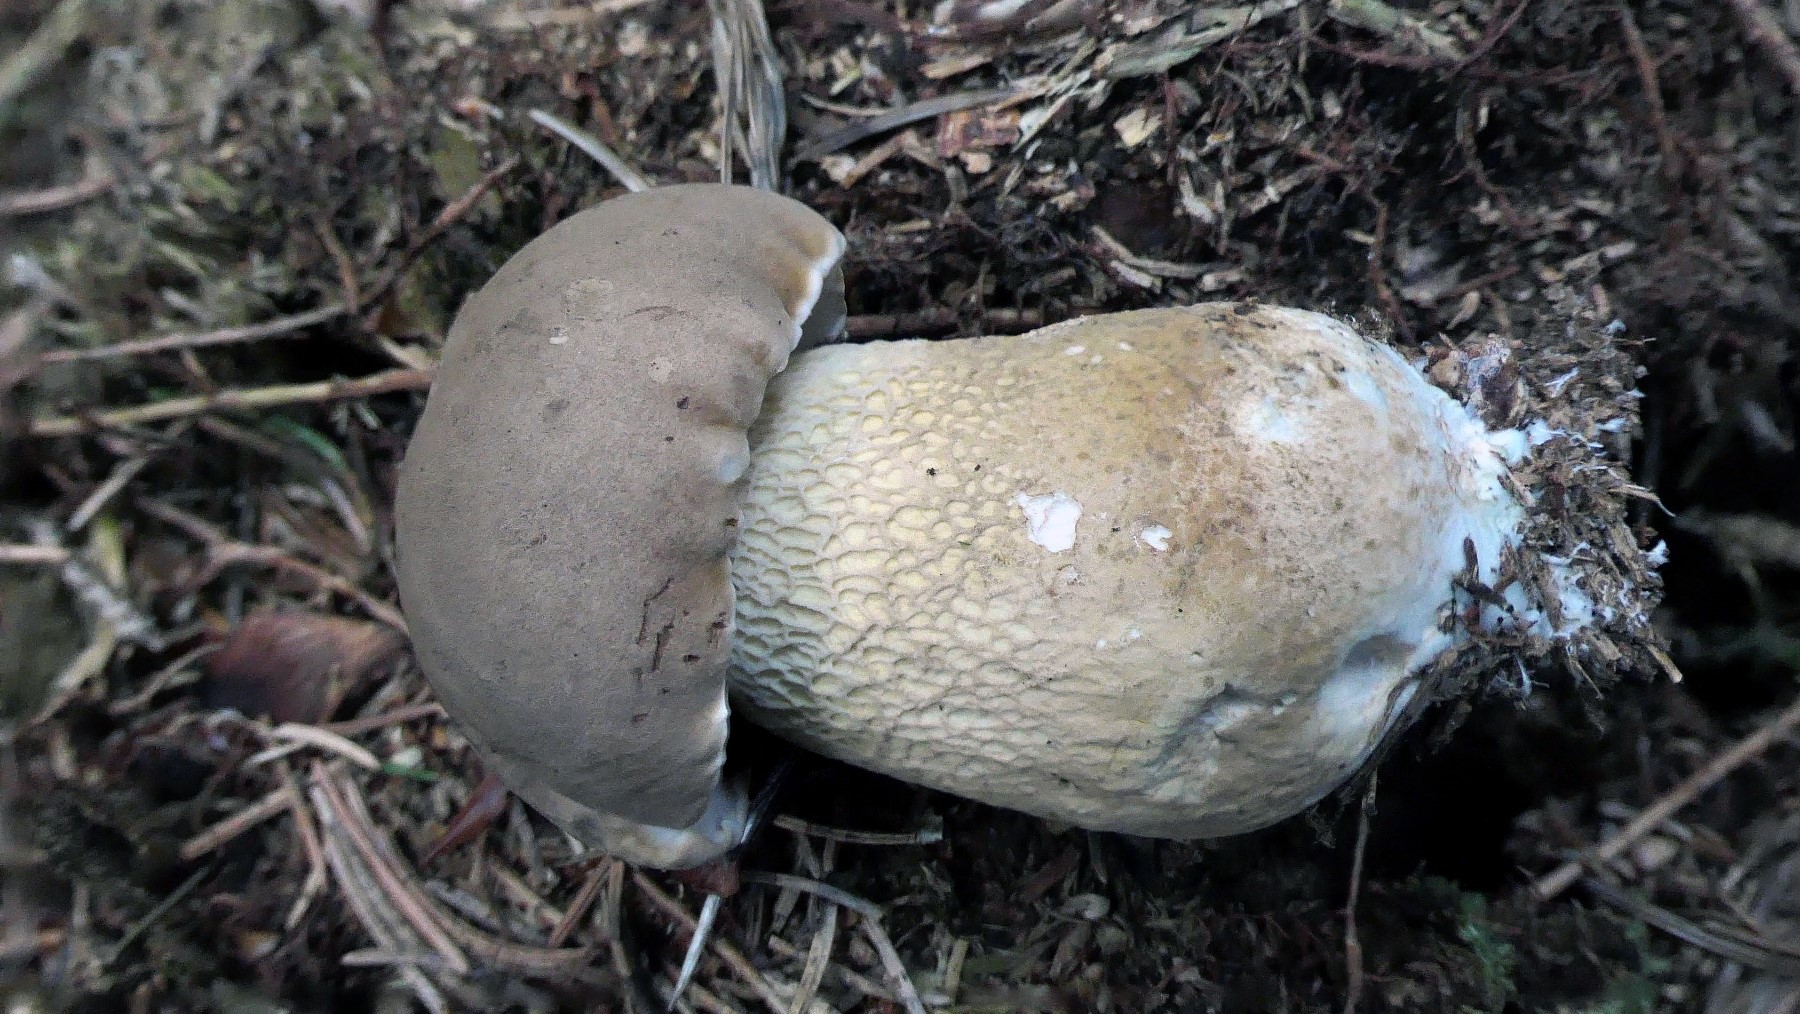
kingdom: Fungi
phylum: Basidiomycota
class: Agaricomycetes
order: Boletales
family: Boletaceae
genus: Tylopilus
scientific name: Tylopilus felleus
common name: galderørhat
